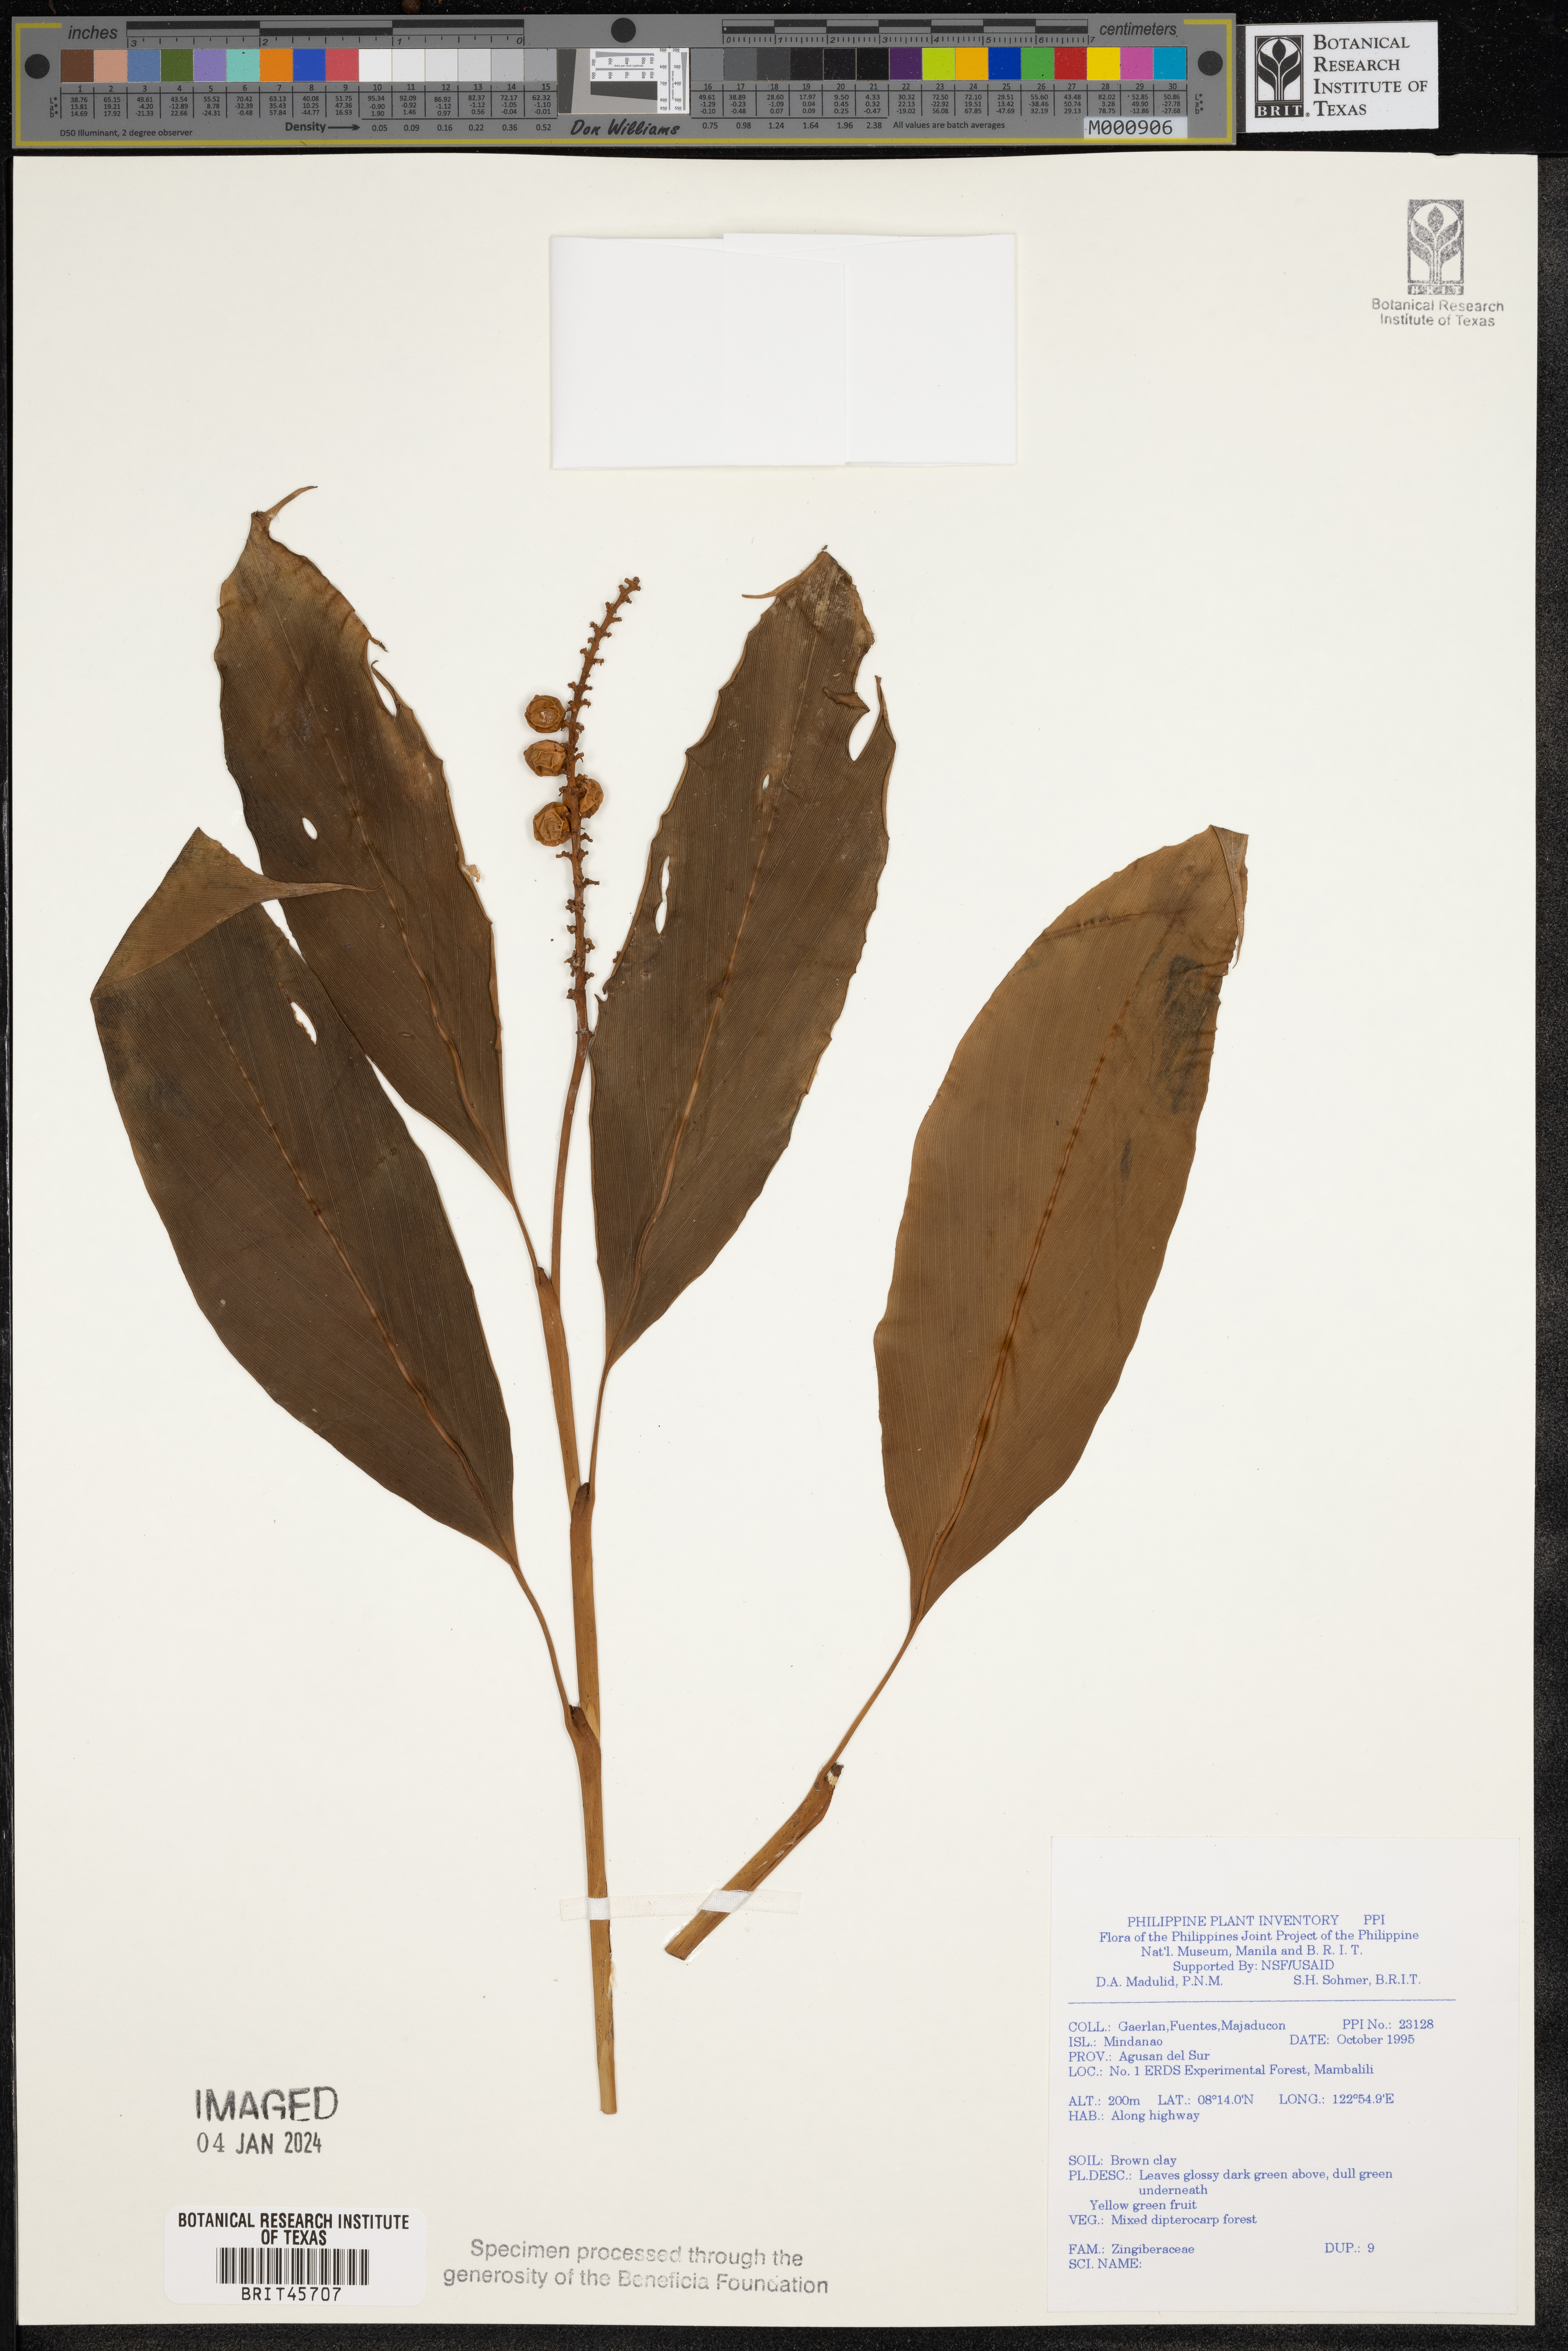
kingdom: Plantae
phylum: Tracheophyta
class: Liliopsida
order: Zingiberales
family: Zingiberaceae
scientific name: Zingiberaceae
